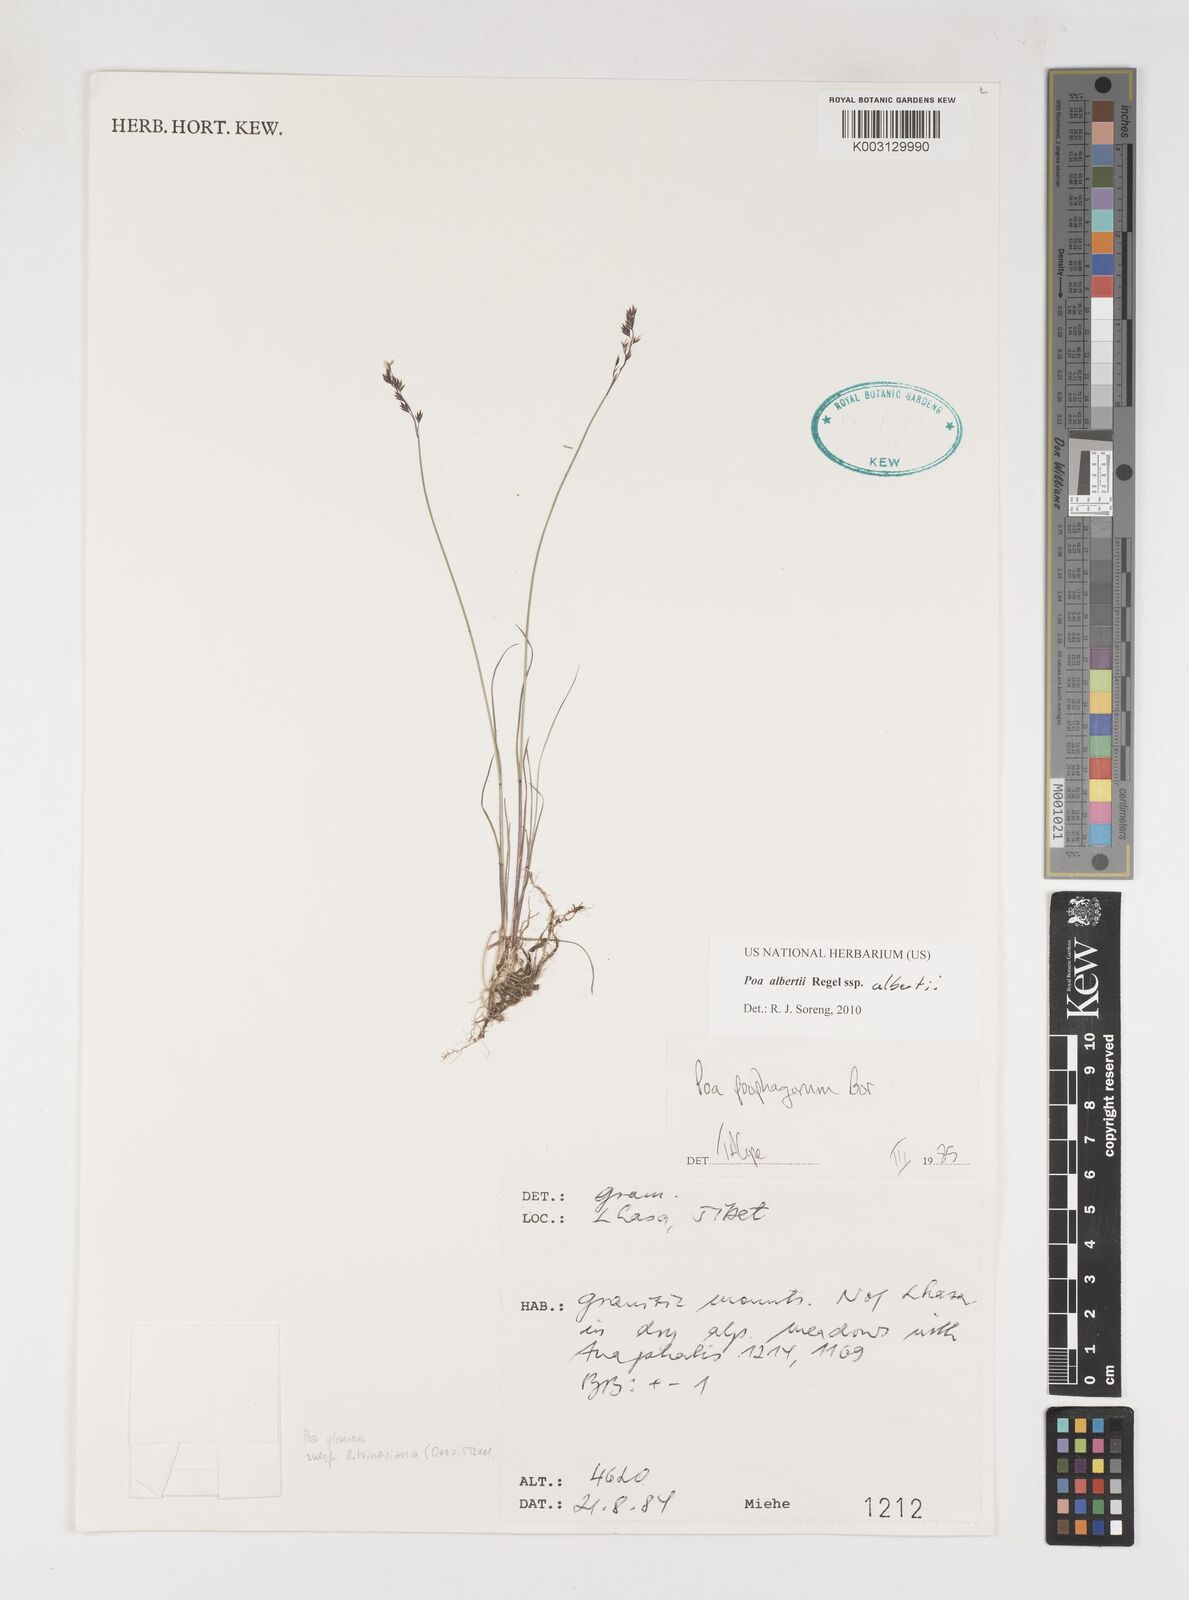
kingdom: Plantae
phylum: Tracheophyta
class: Liliopsida
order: Poales
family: Poaceae
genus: Poa
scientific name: Poa alberti
